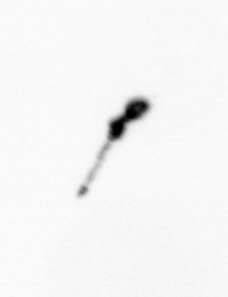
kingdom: Animalia
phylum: Arthropoda
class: Copepoda
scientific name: Copepoda
